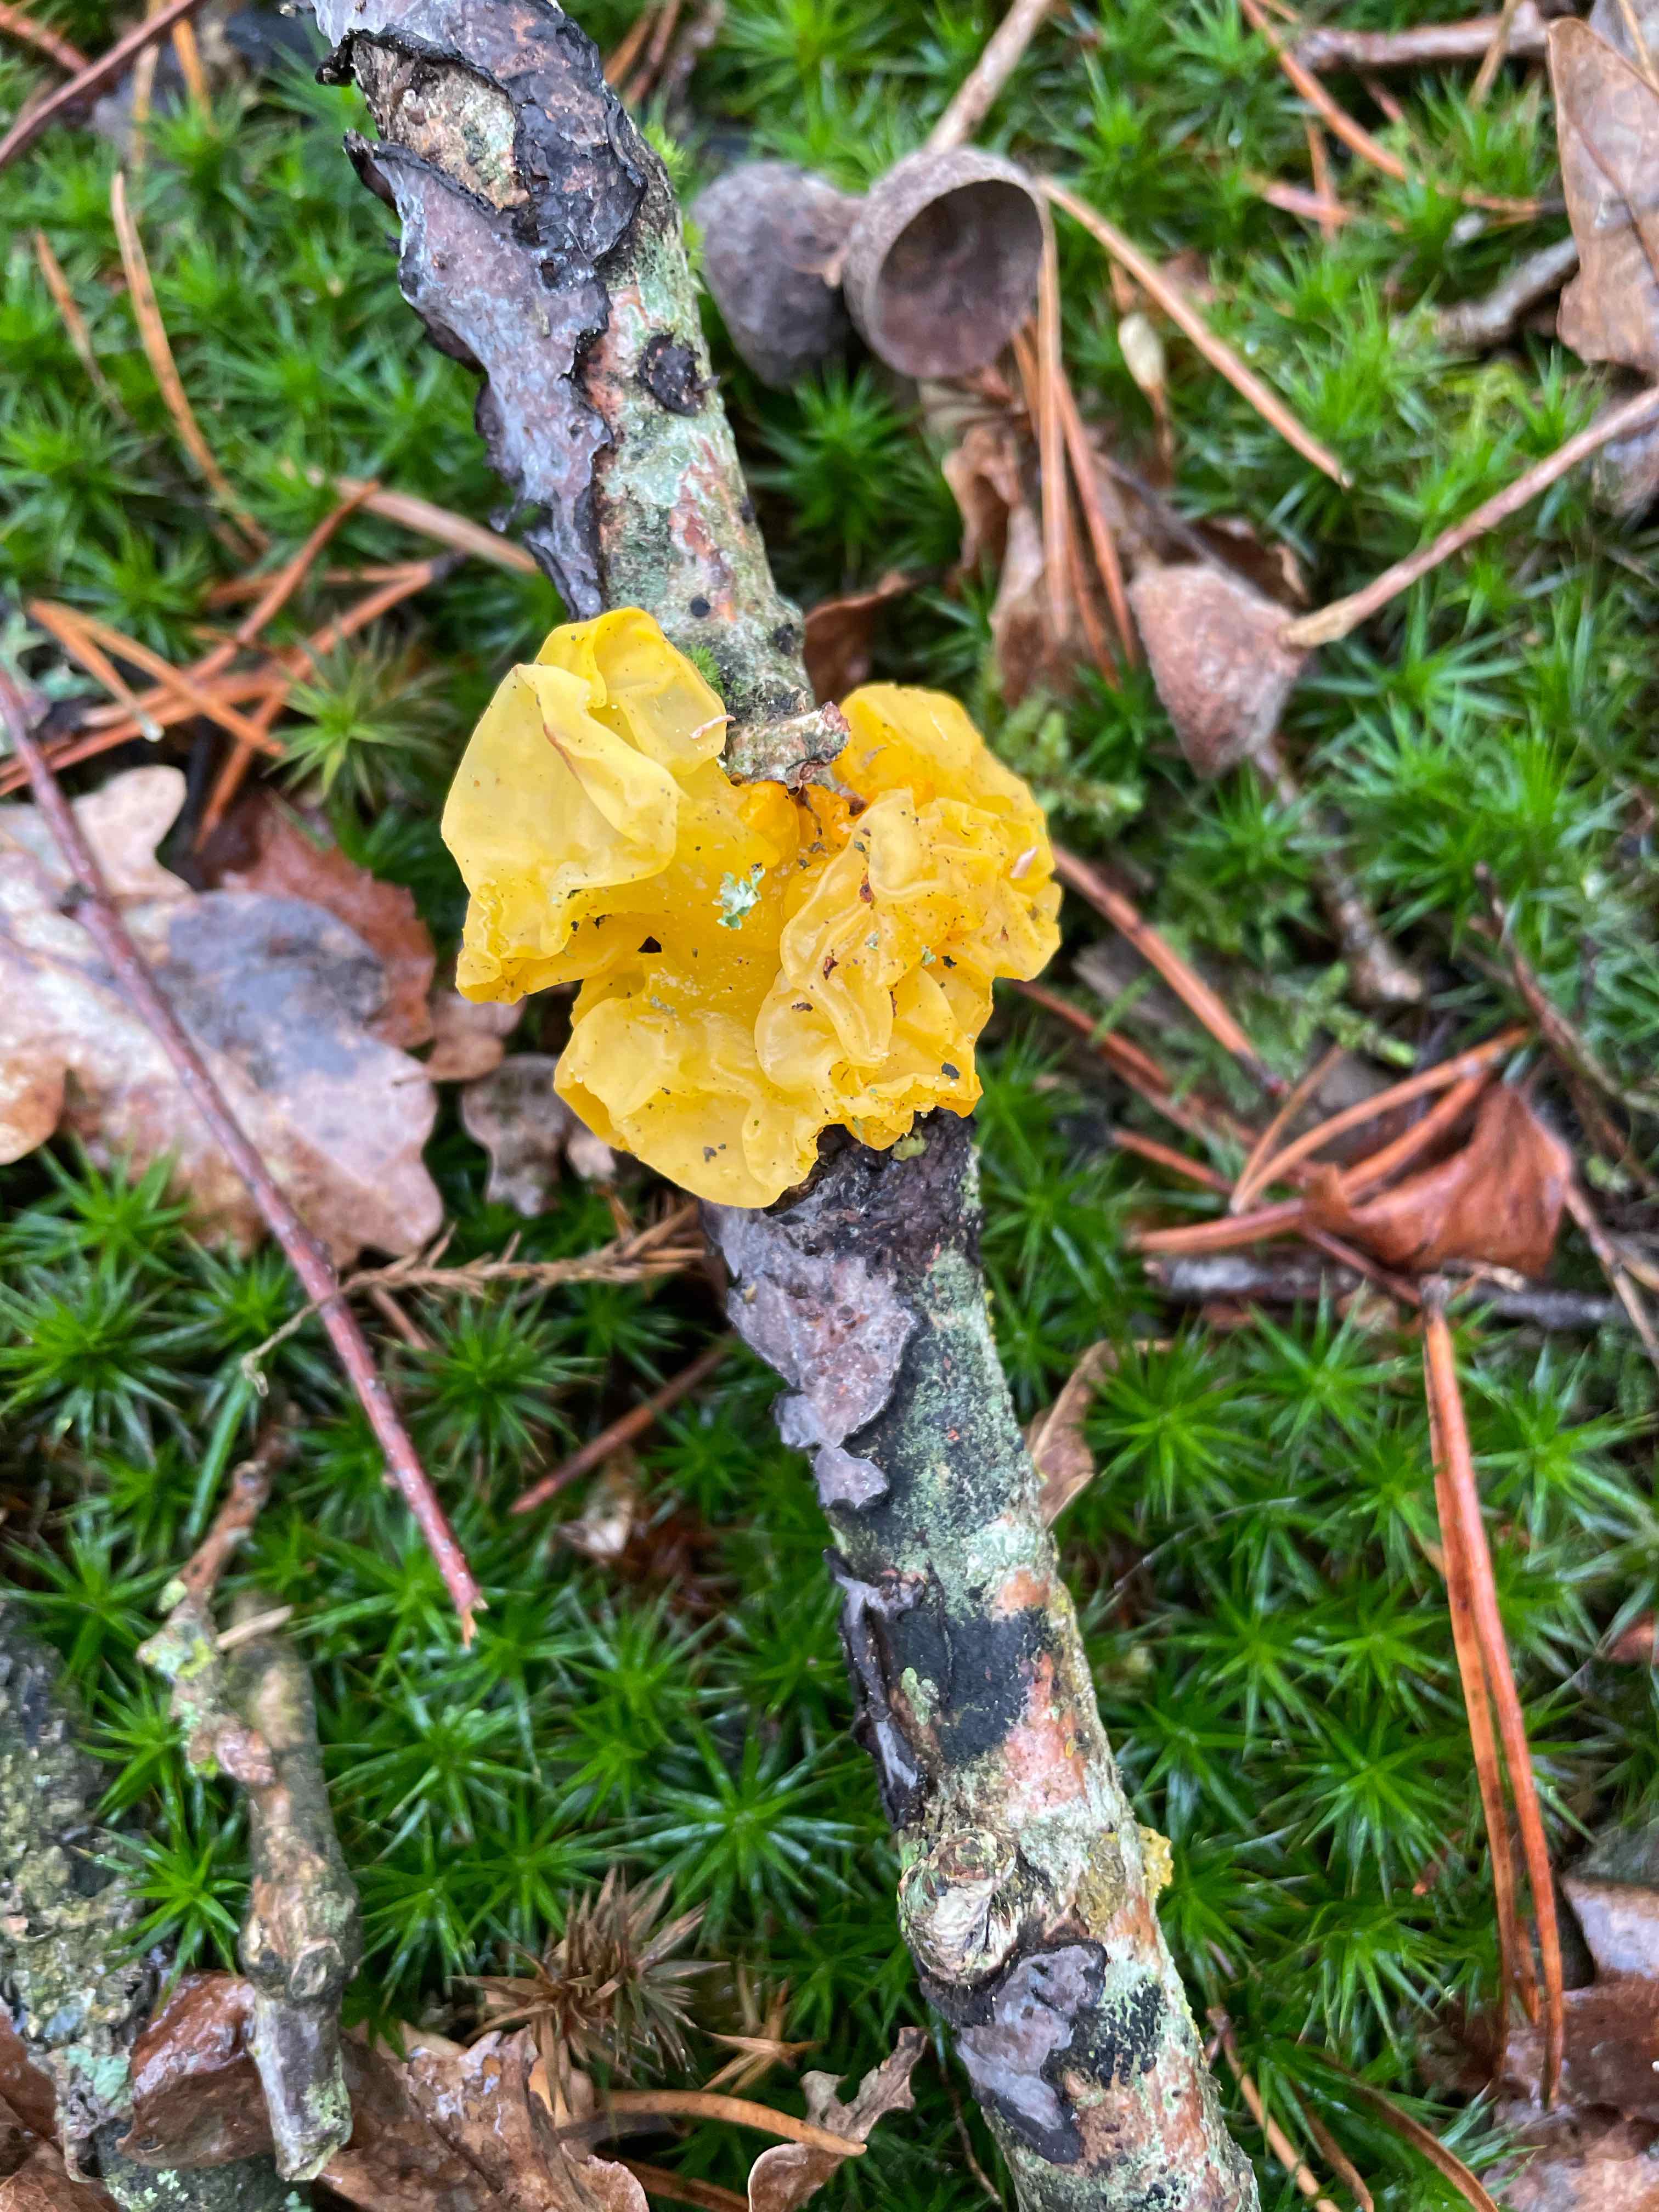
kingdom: Fungi
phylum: Basidiomycota
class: Tremellomycetes
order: Tremellales
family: Tremellaceae
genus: Tremella
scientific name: Tremella mesenterica
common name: gul bævresvamp
